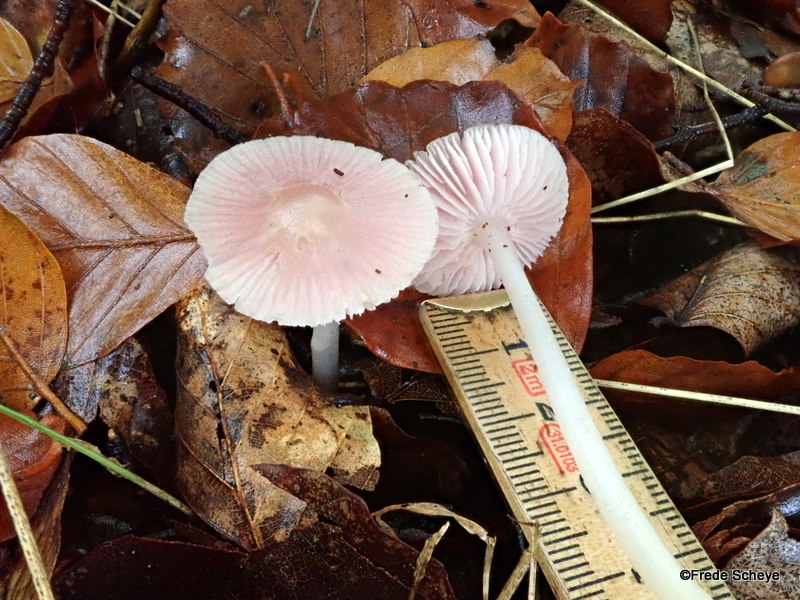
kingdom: Fungi
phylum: Basidiomycota
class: Agaricomycetes
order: Agaricales
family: Mycenaceae
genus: Mycena
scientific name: Mycena rosea
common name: rosa huesvamp
